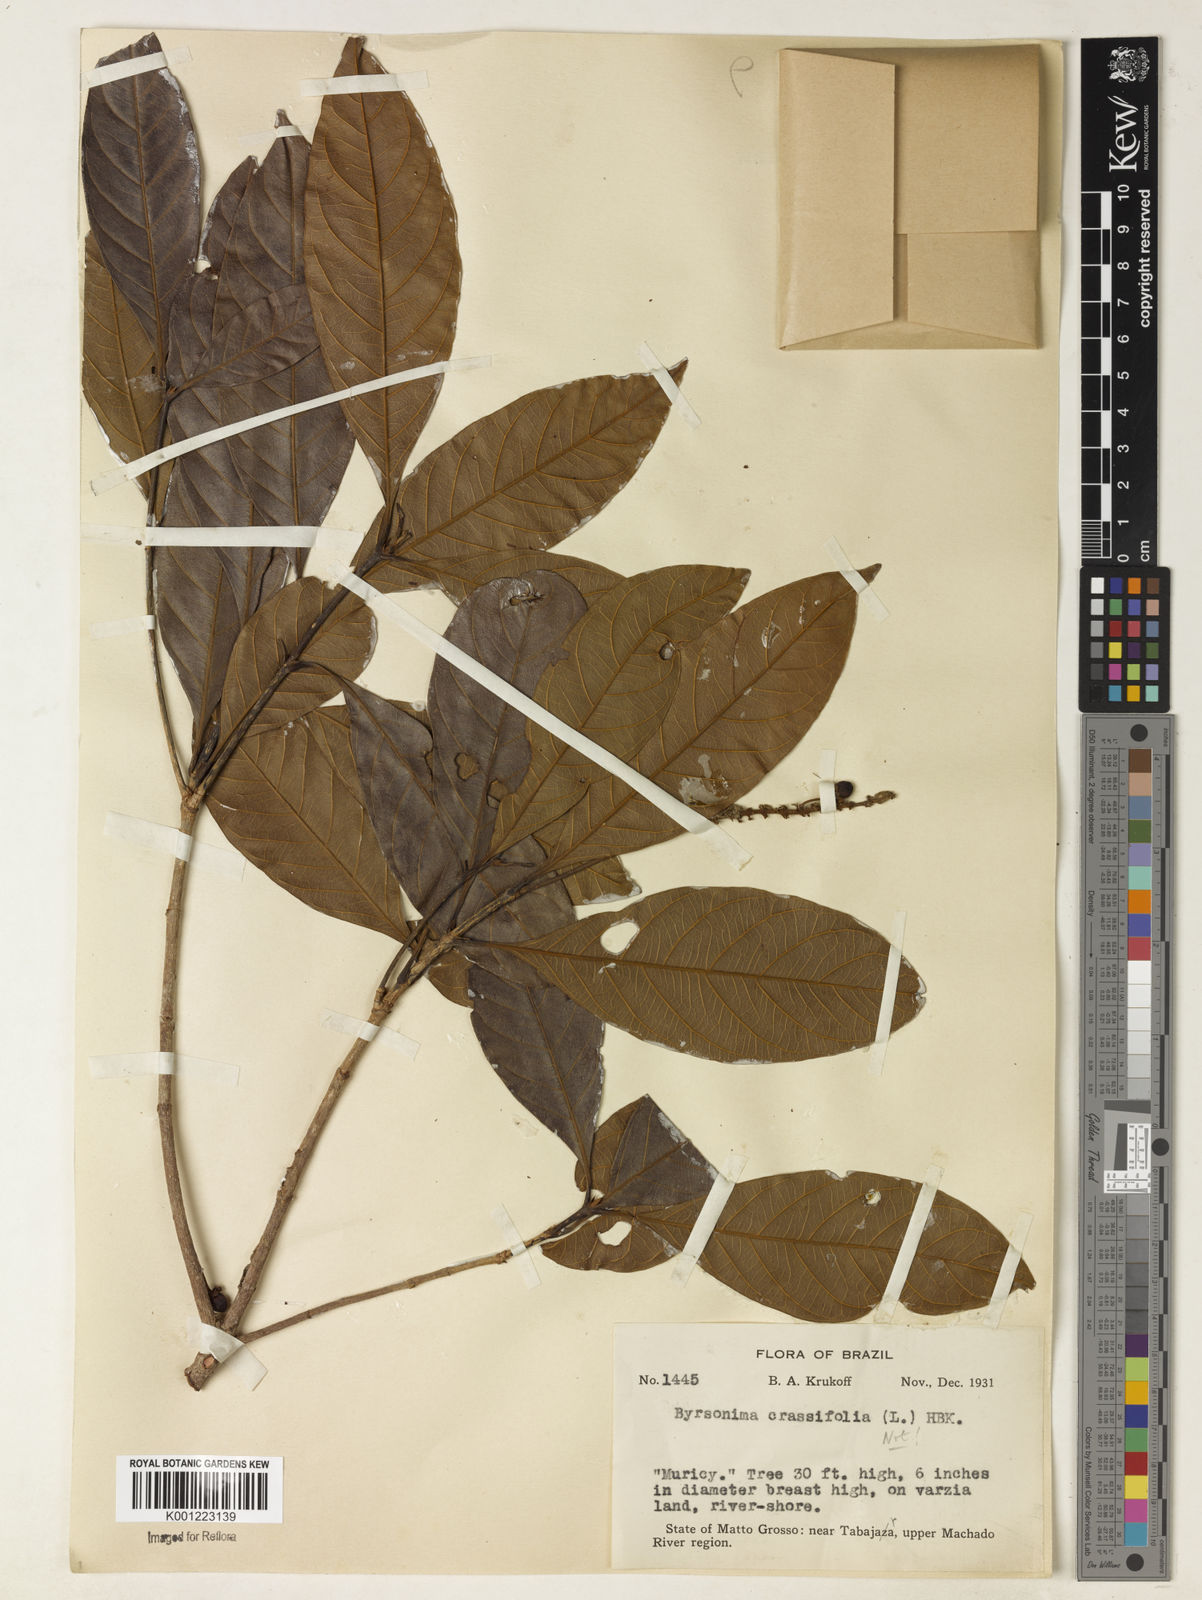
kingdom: Plantae
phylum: Tracheophyta
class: Magnoliopsida
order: Malpighiales
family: Malpighiaceae
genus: Byrsonima
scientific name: Byrsonima
